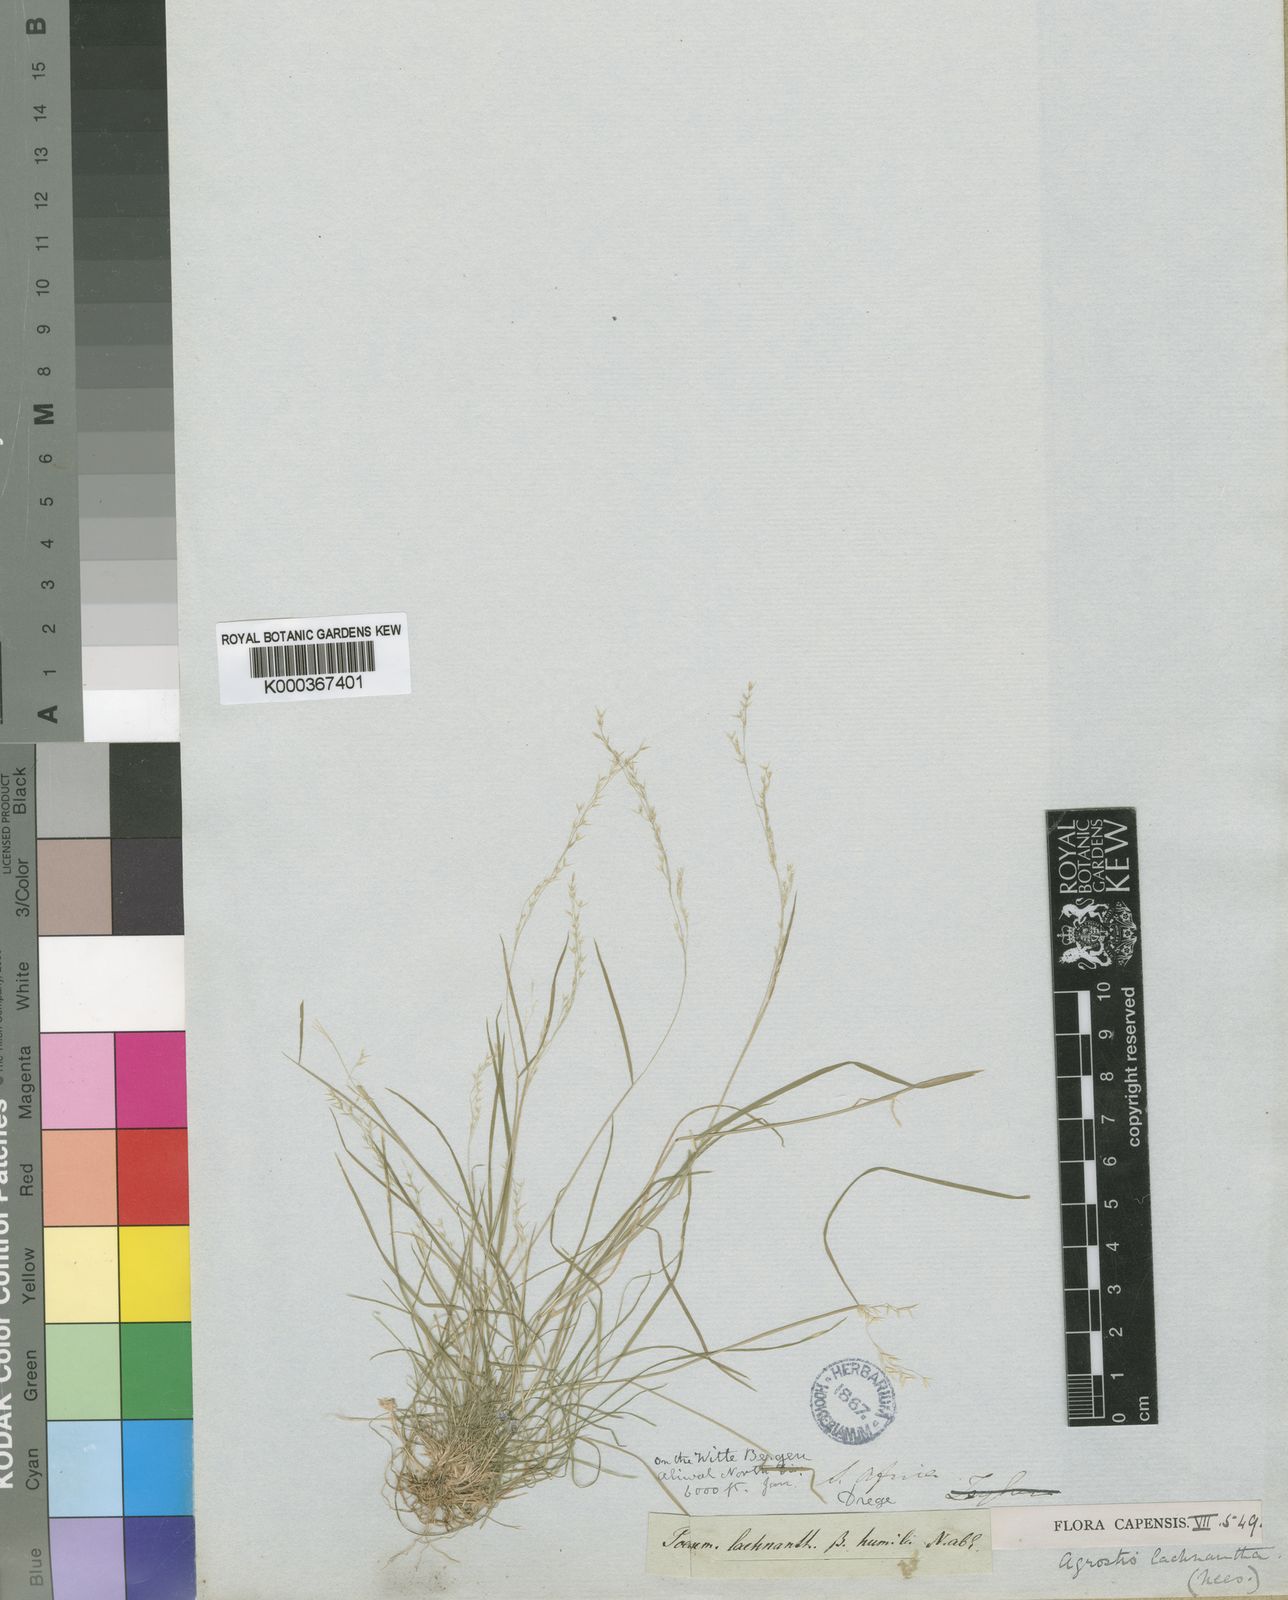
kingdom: Plantae
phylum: Tracheophyta
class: Liliopsida
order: Poales
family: Poaceae
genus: Lachnagrostis
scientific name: Lachnagrostis lachnantha
